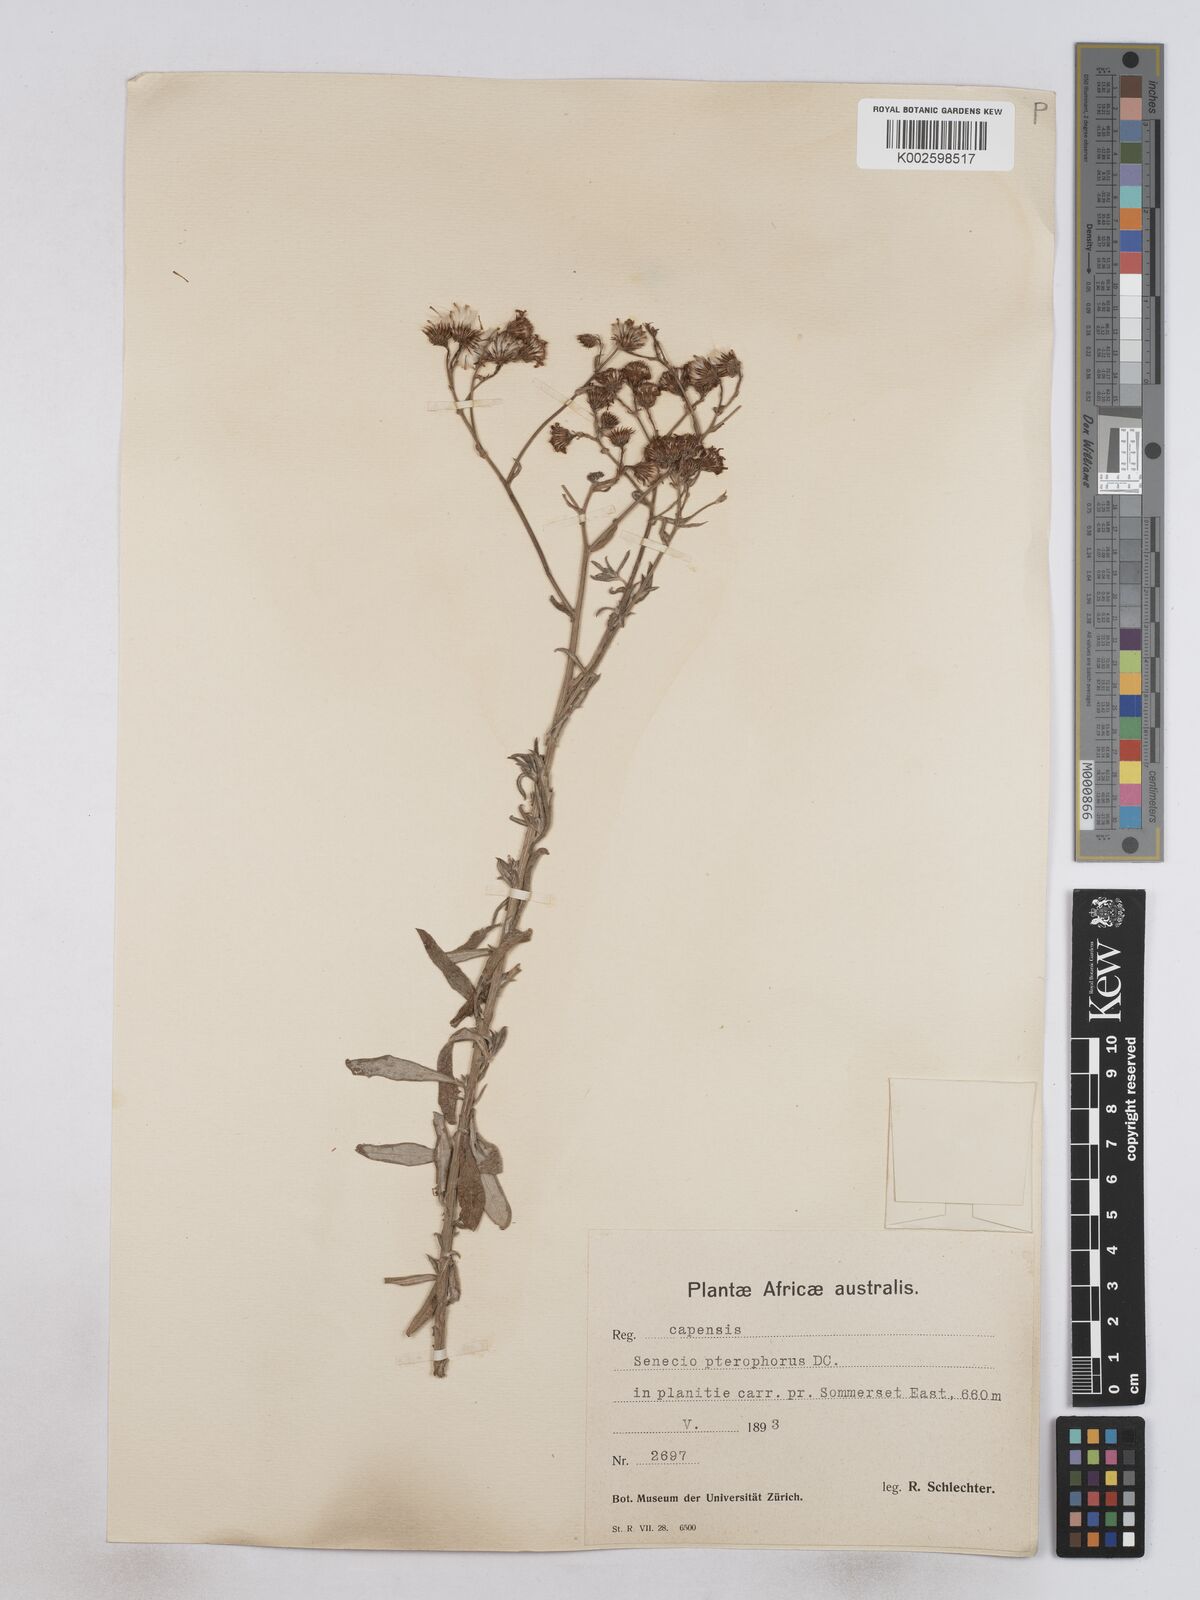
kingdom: Plantae
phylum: Tracheophyta
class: Magnoliopsida
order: Asterales
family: Asteraceae
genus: Senecio
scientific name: Senecio ilicifolius
